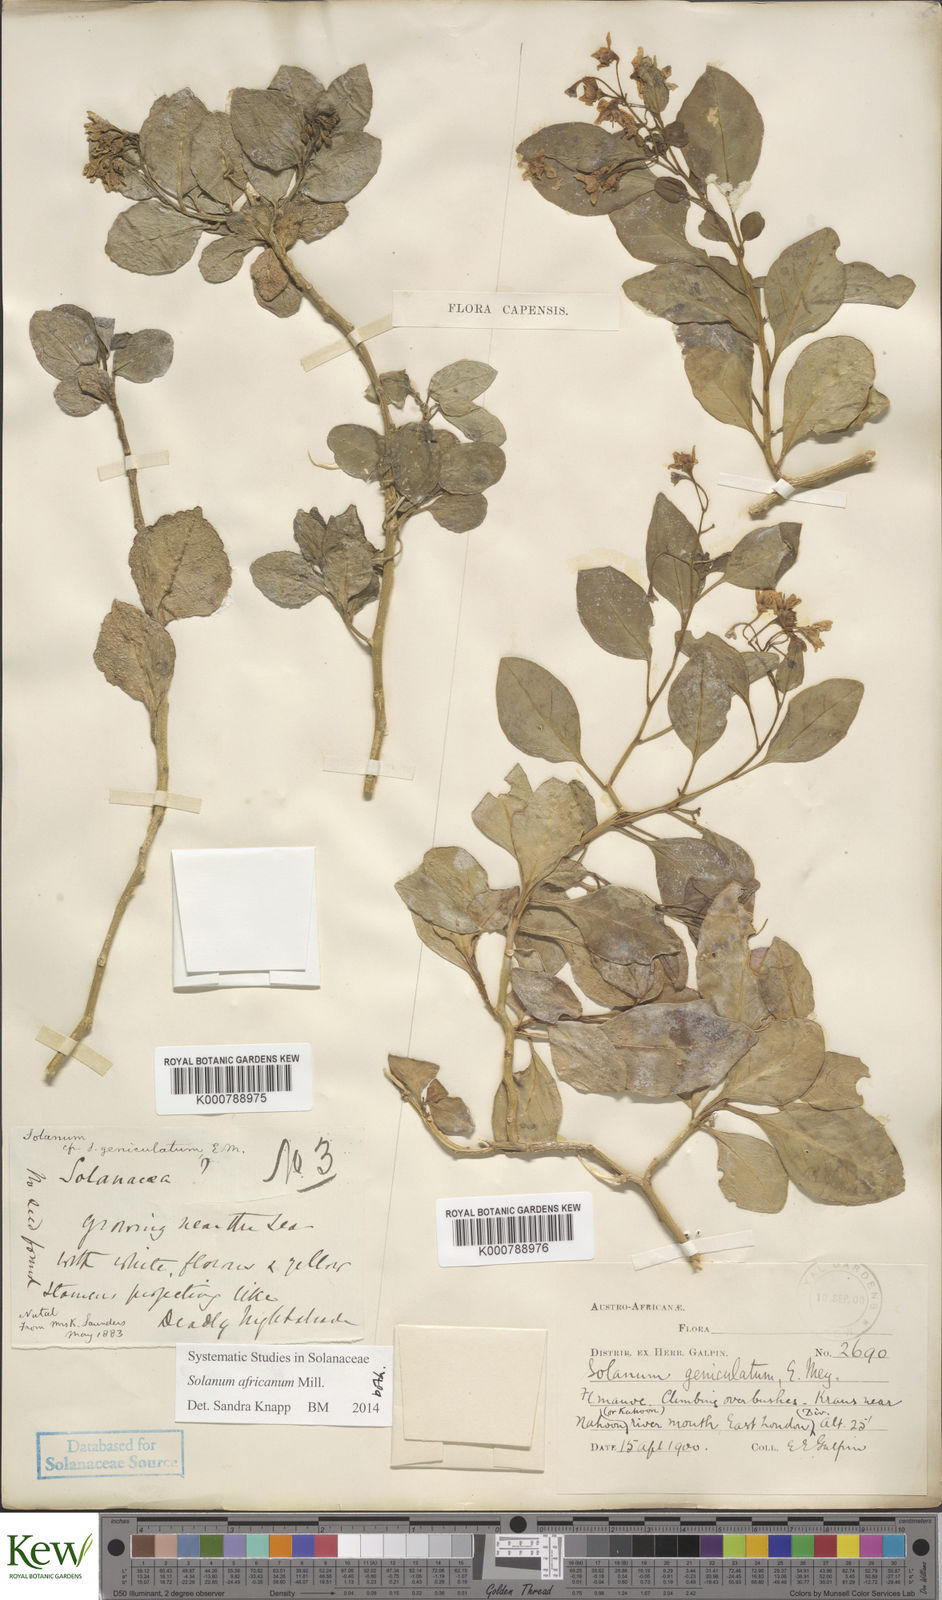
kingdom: Plantae
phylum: Tracheophyta
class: Magnoliopsida
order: Solanales
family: Solanaceae
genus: Solanum
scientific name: Solanum africanum
